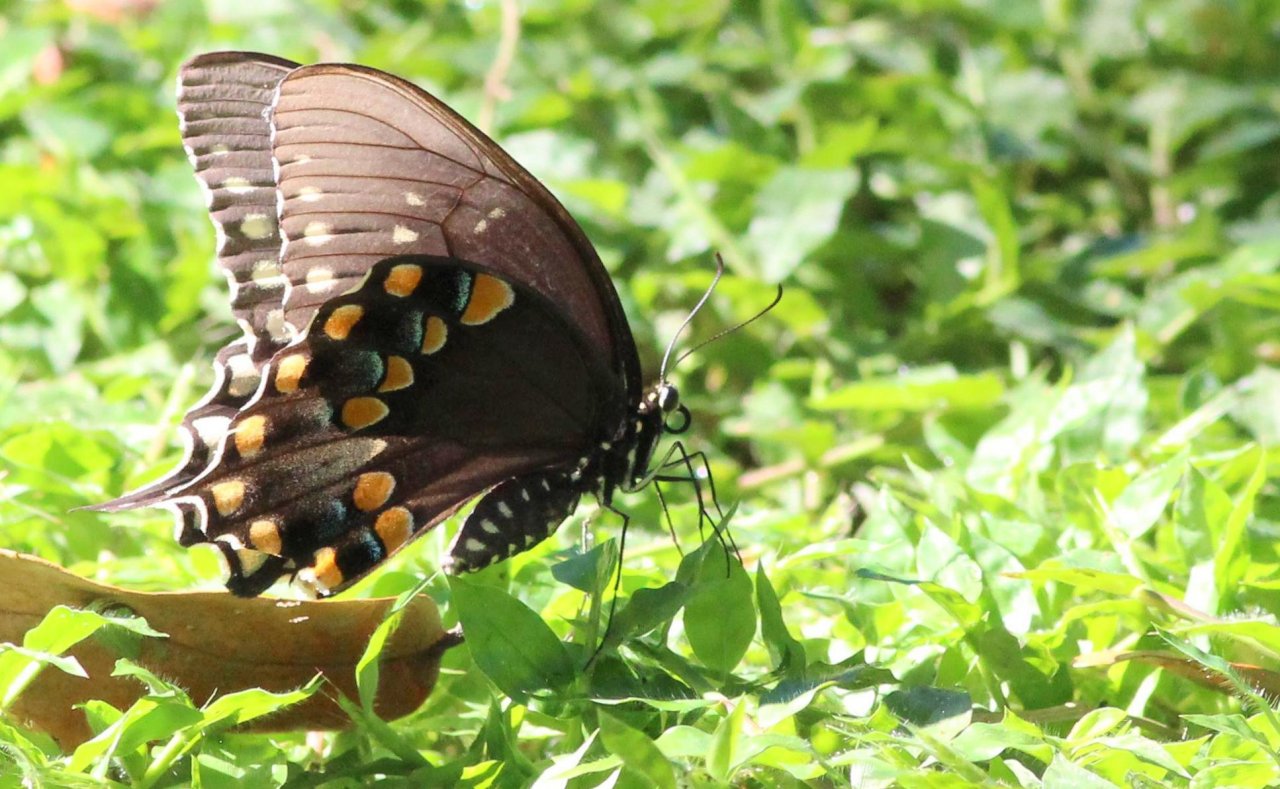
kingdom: Animalia
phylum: Arthropoda
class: Insecta
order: Lepidoptera
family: Papilionidae
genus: Pterourus
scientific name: Pterourus troilus
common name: Spicebush Swallowtail
